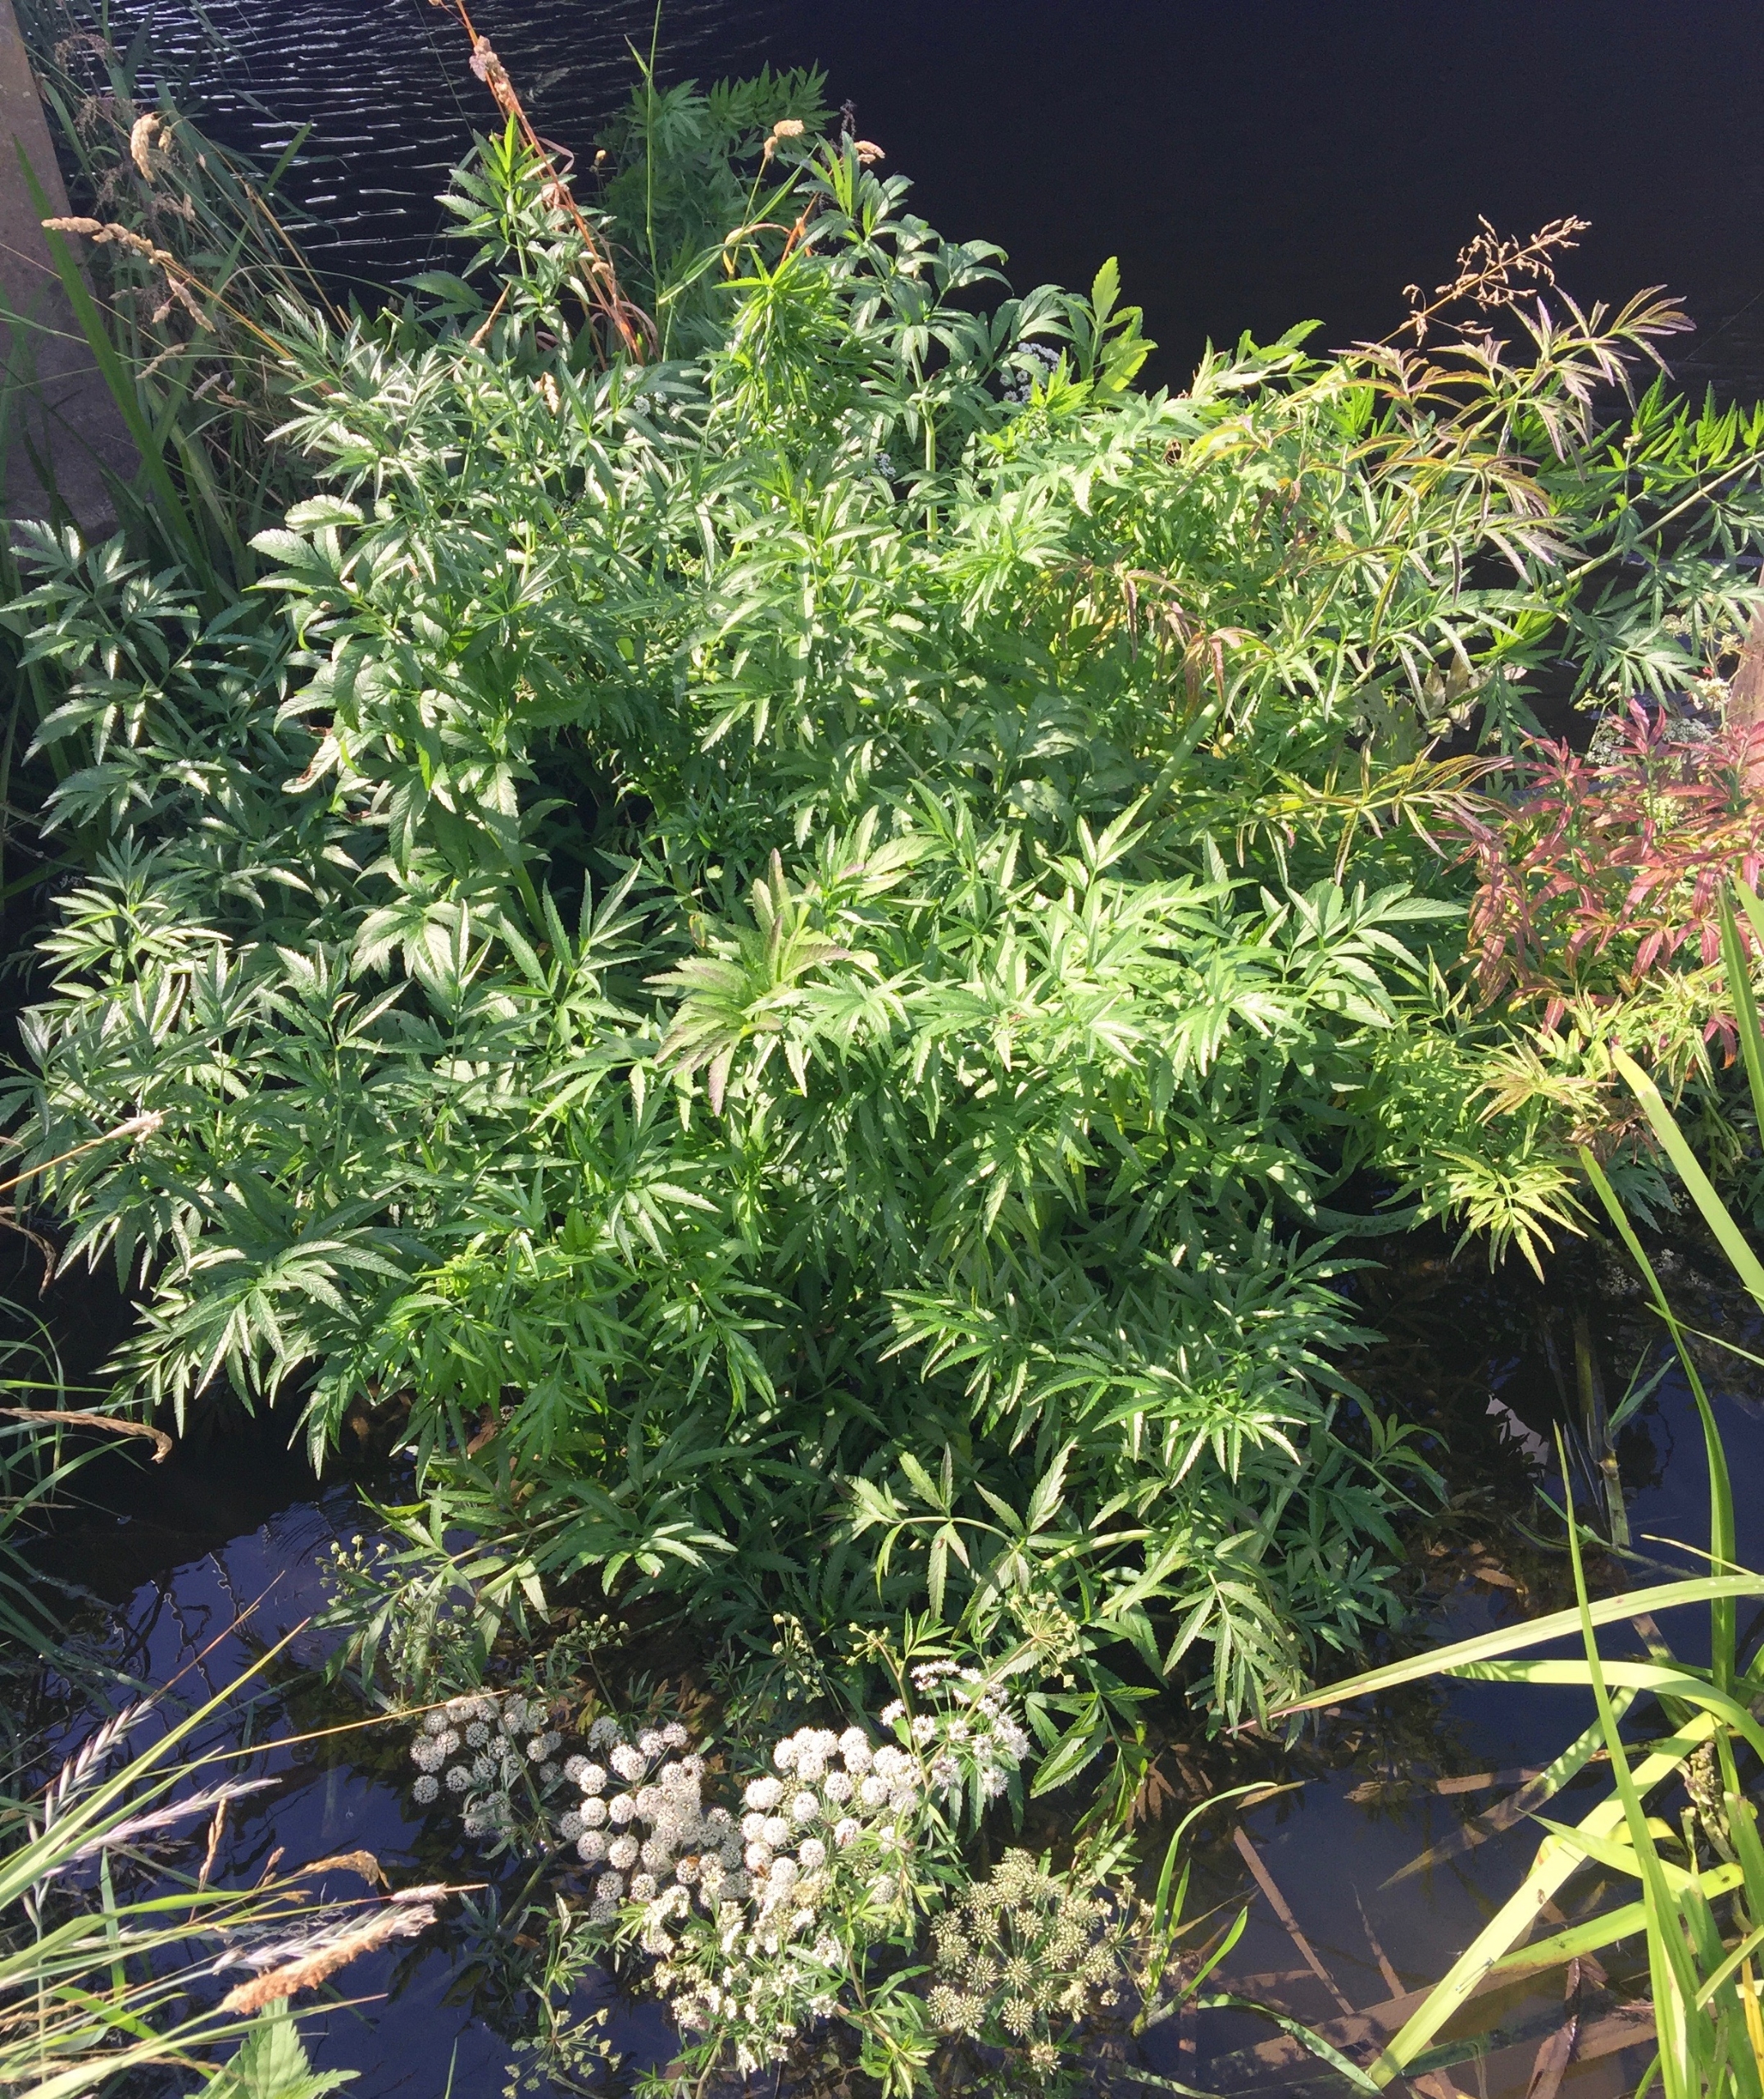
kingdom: Plantae
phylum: Tracheophyta
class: Magnoliopsida
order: Apiales
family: Apiaceae
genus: Cicuta
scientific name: Cicuta virosa
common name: Gifttyde
